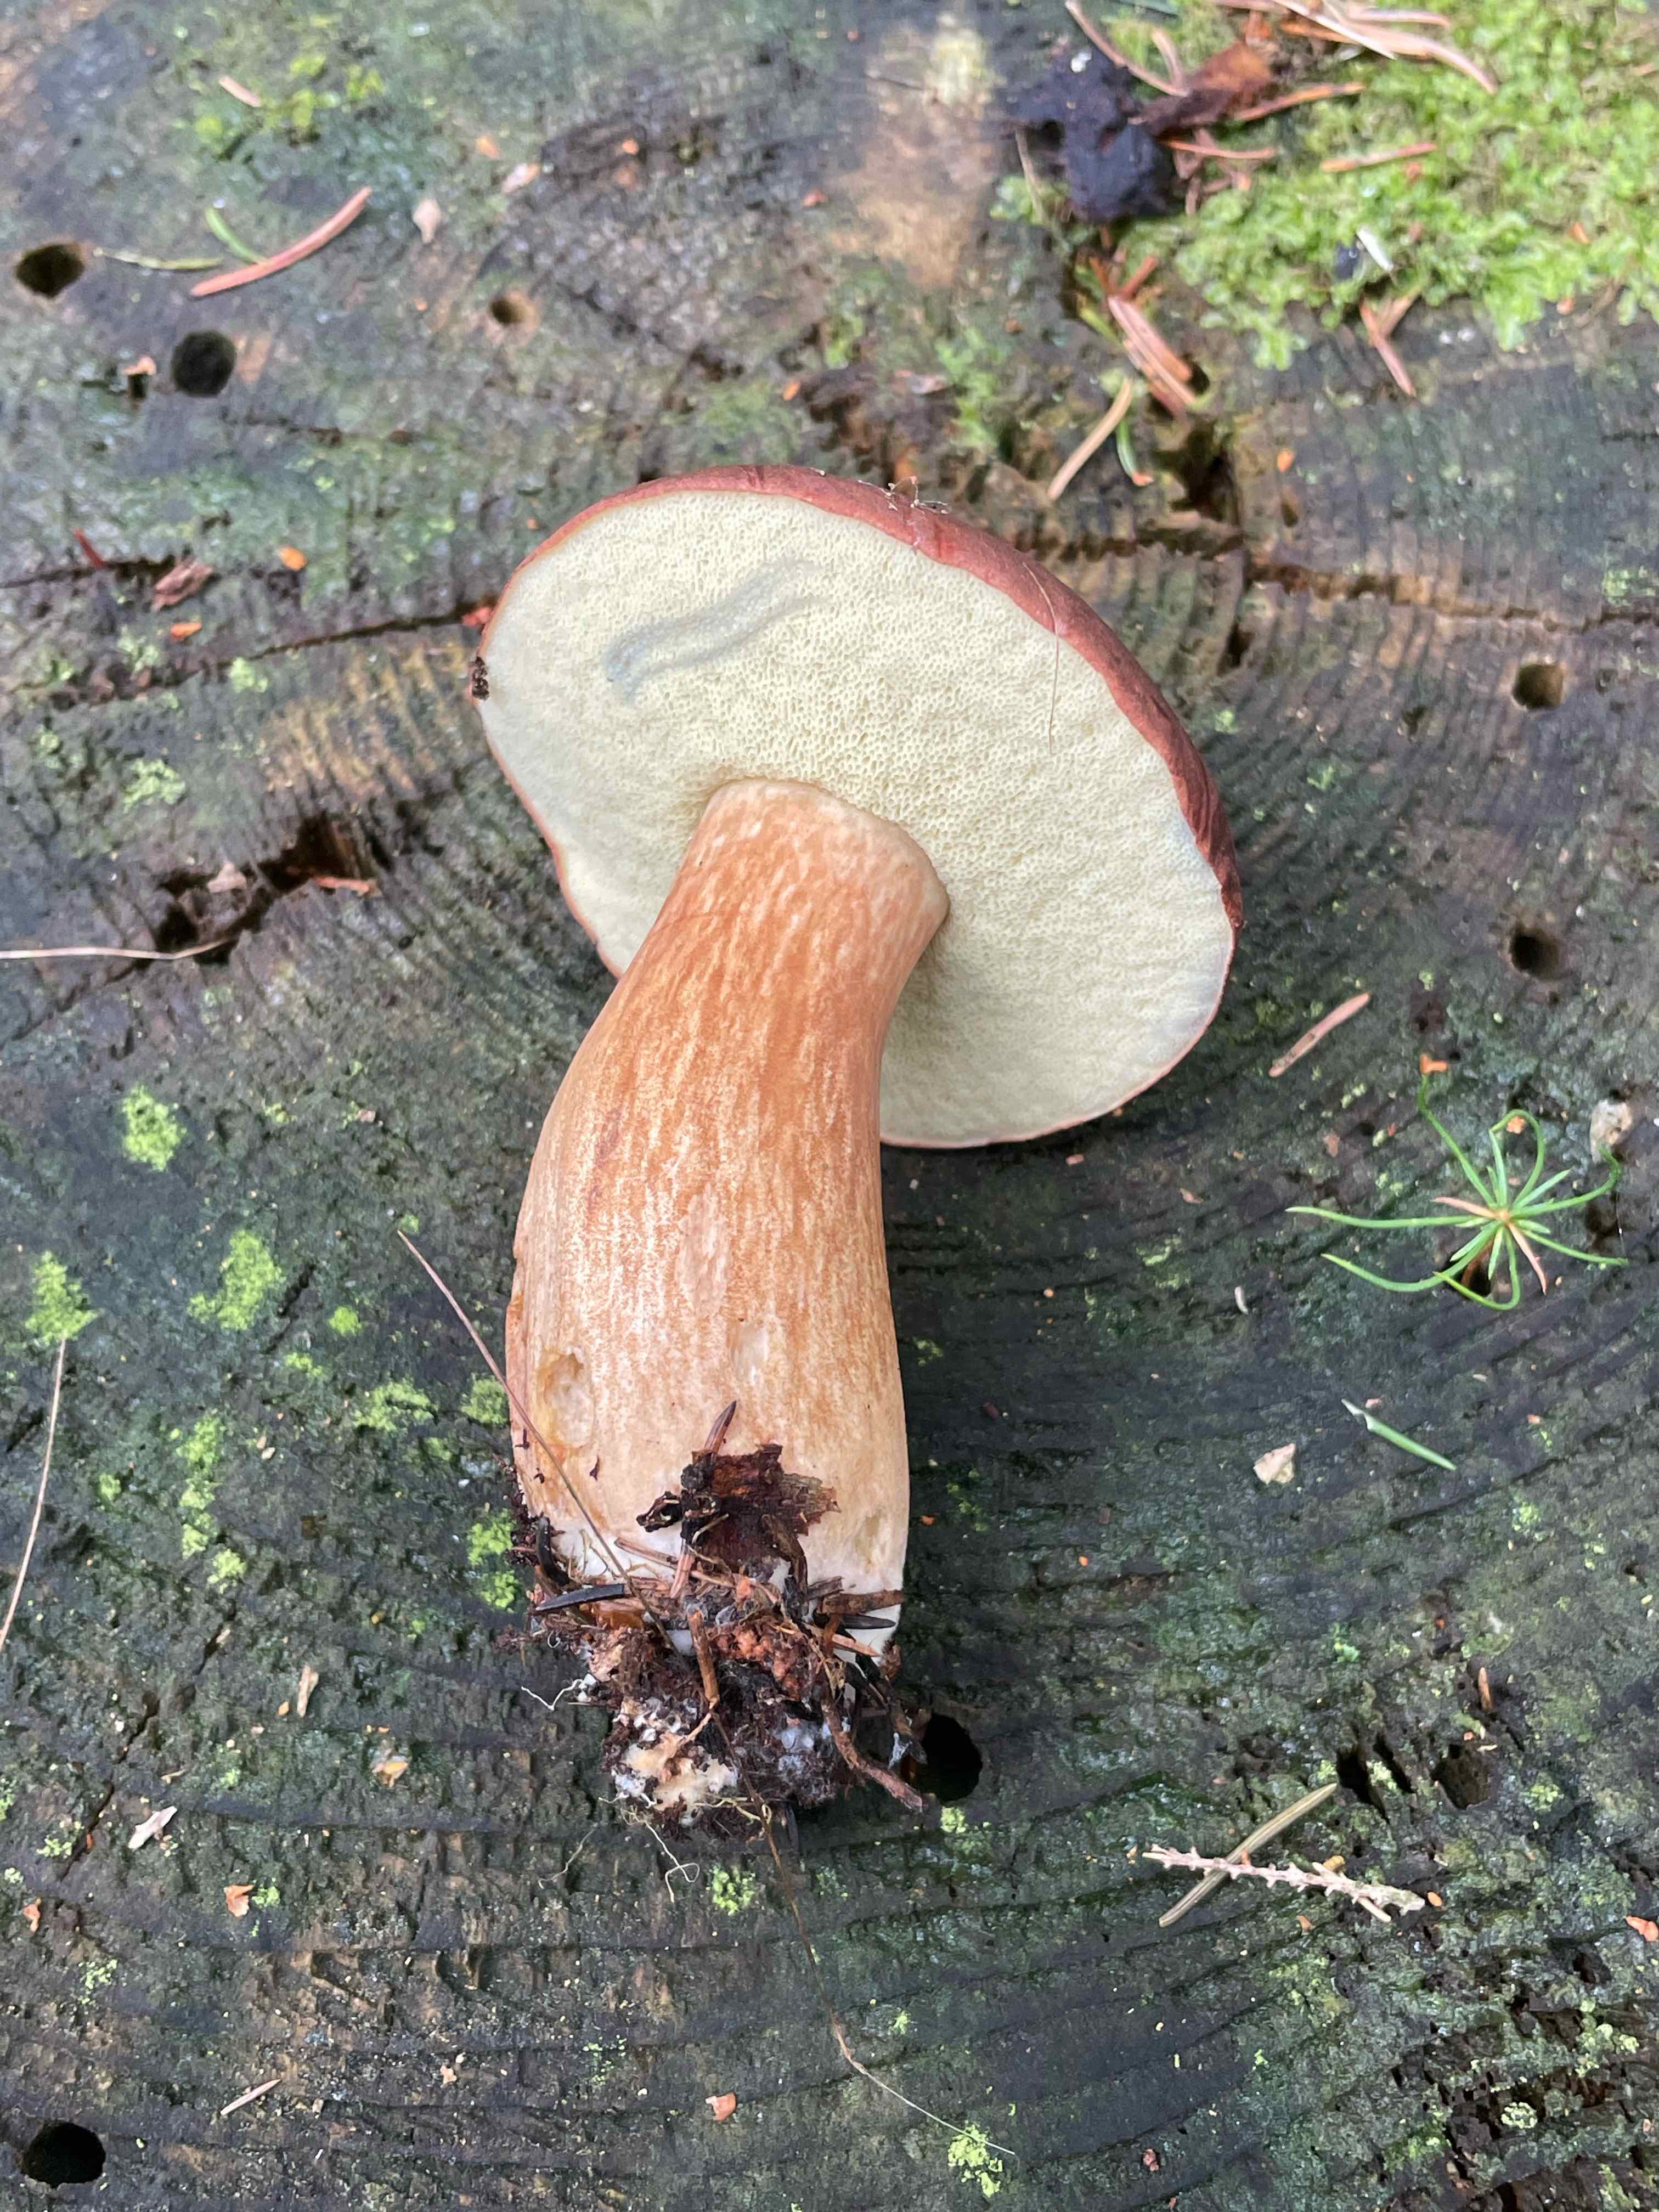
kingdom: Fungi
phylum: Basidiomycota
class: Agaricomycetes
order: Boletales
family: Boletaceae
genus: Imleria
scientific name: Imleria badia
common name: brunstokket rørhat
